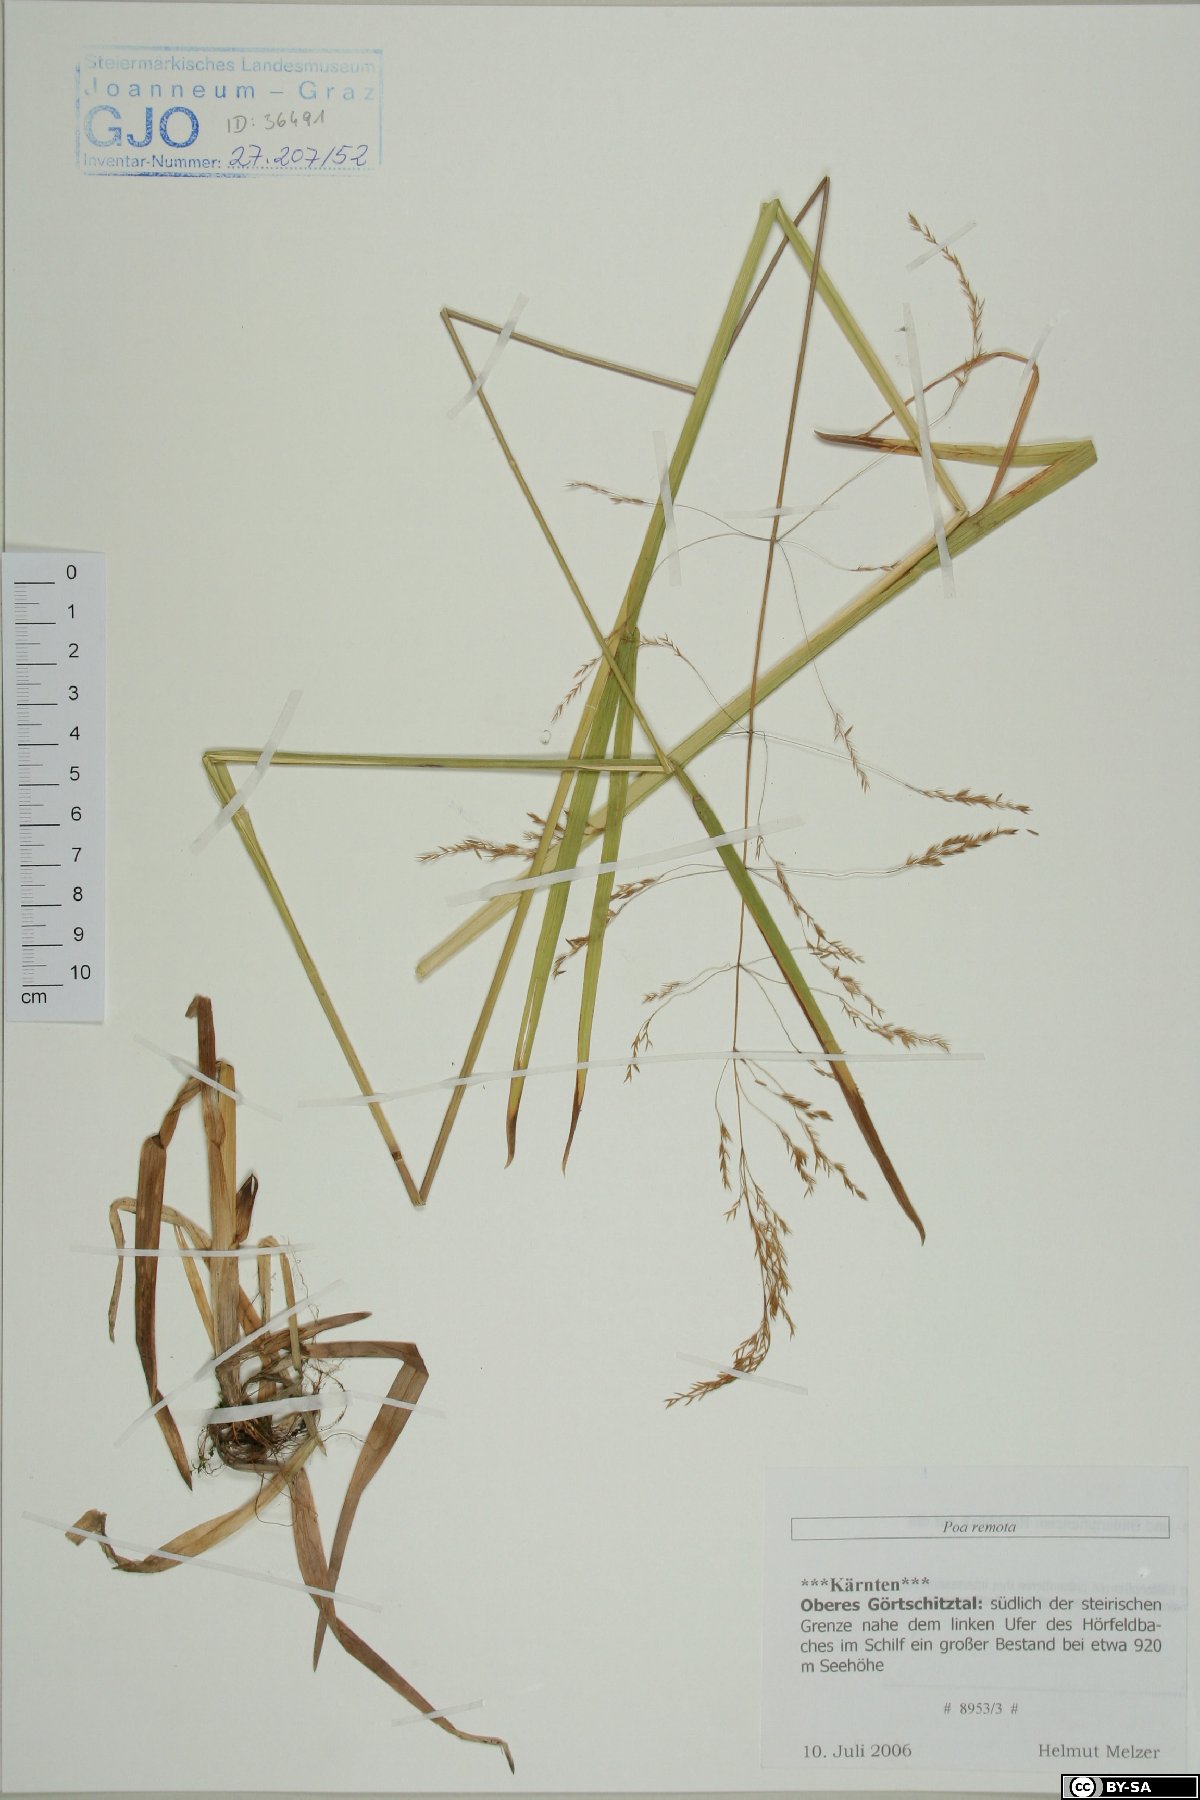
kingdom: Plantae
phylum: Tracheophyta
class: Liliopsida
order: Poales
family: Poaceae
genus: Poa
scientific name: Poa remota
